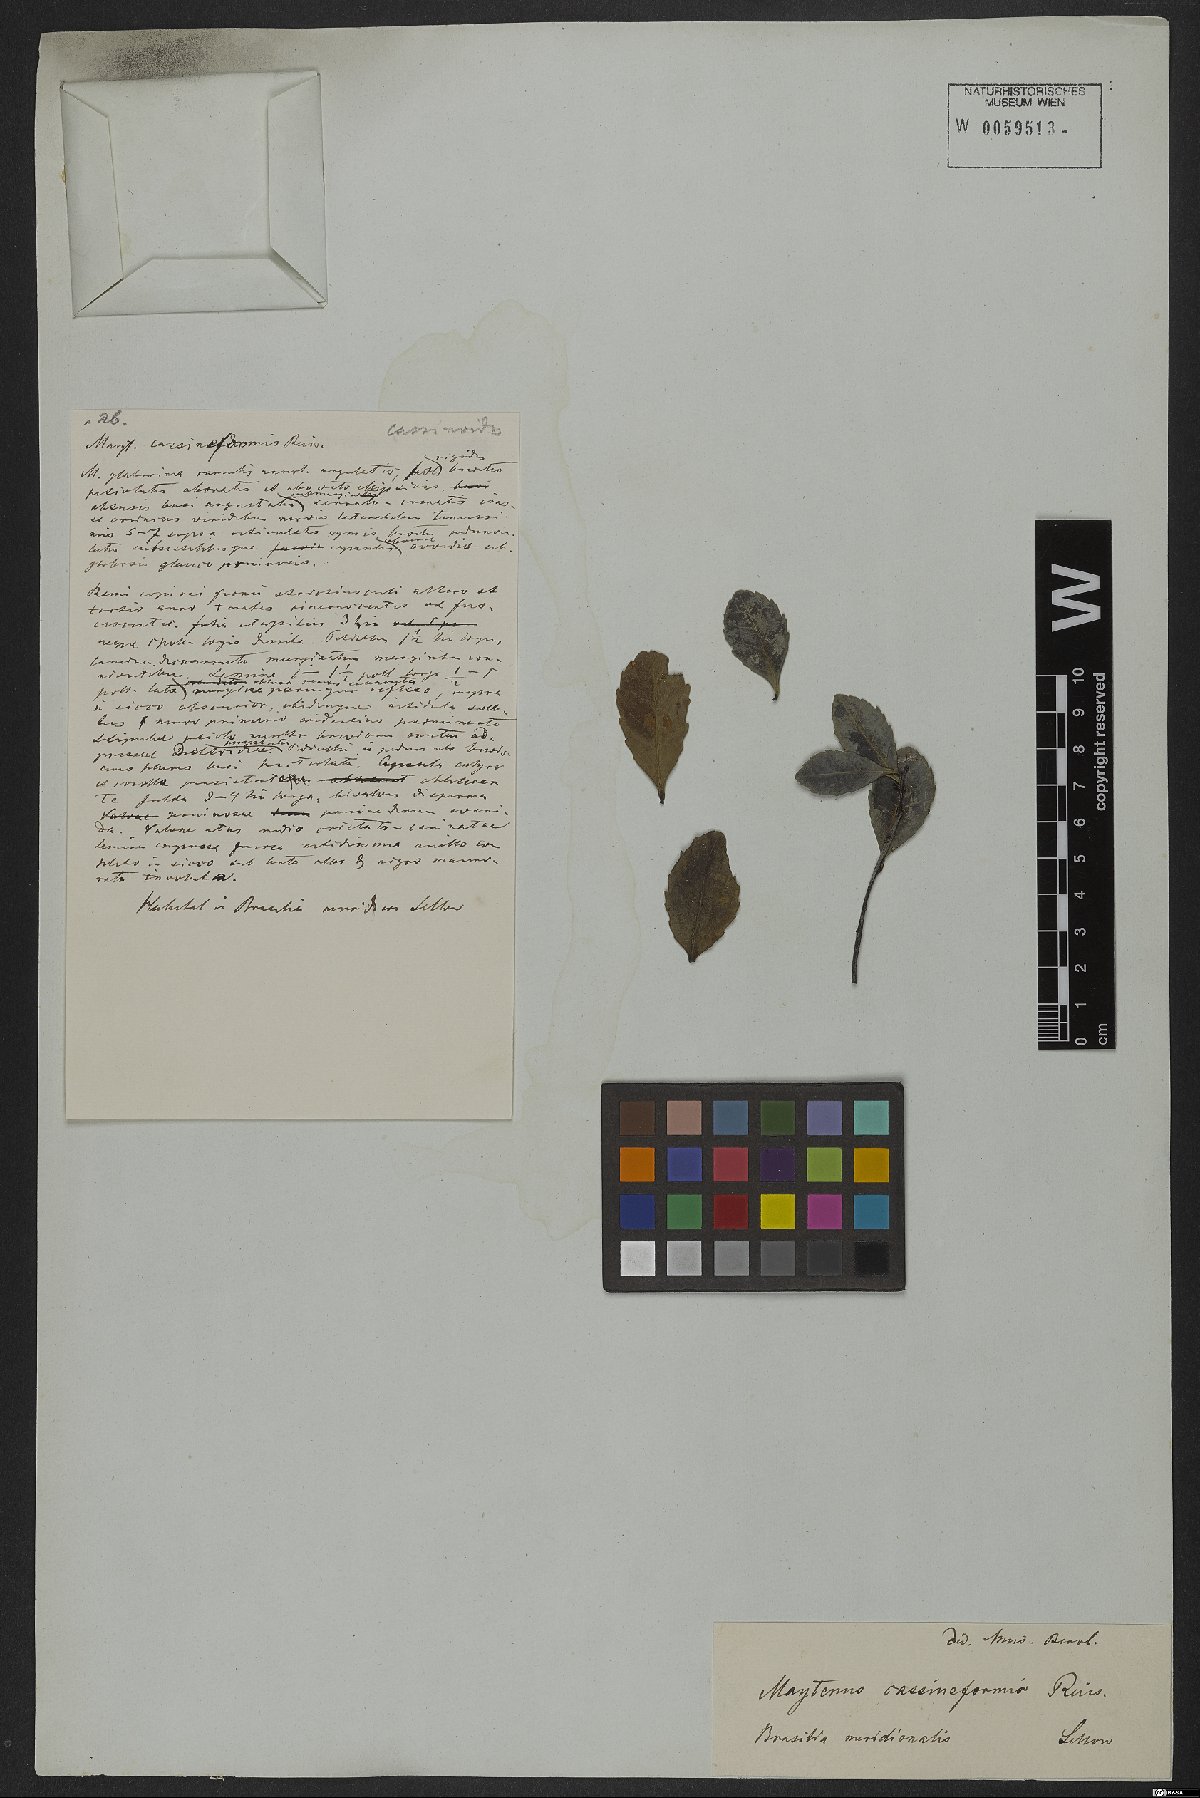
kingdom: Plantae
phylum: Tracheophyta
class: Magnoliopsida
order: Celastrales
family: Celastraceae
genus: Monteverdia
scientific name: Monteverdia cassineformis
